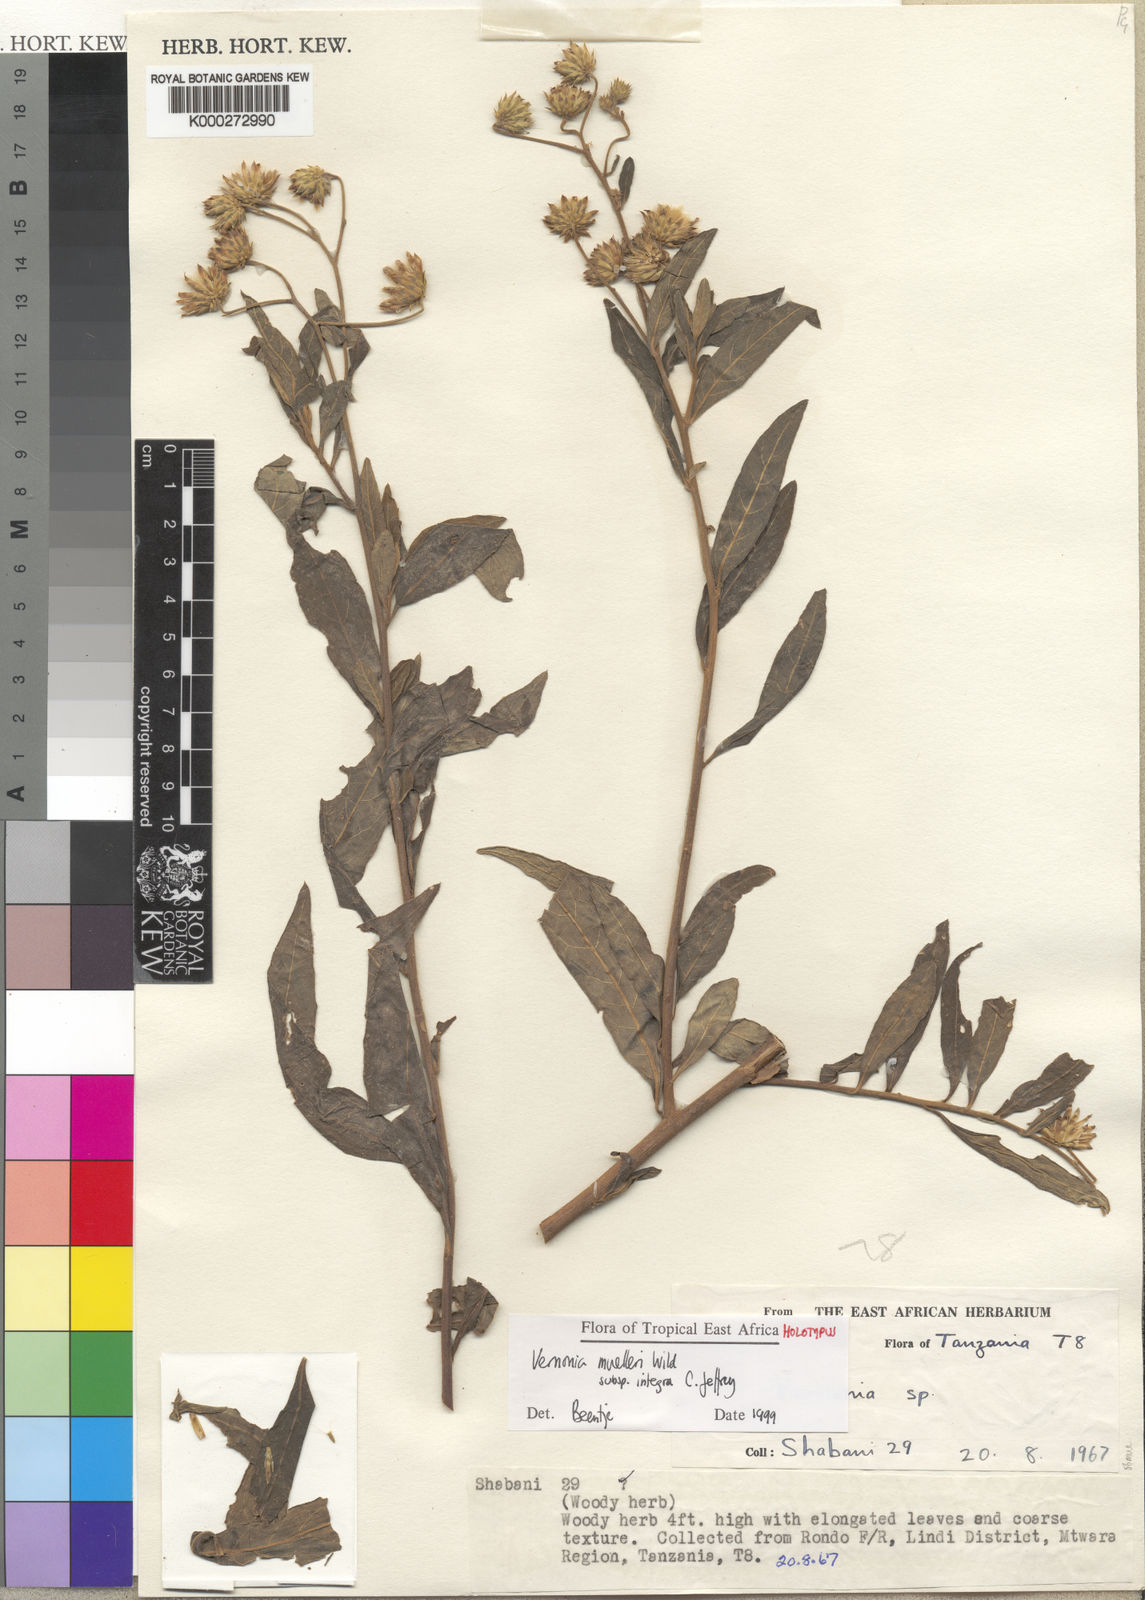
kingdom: Plantae
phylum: Tracheophyta
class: Magnoliopsida
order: Asterales
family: Asteraceae
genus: Vernonia
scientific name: Vernonia muelleri
